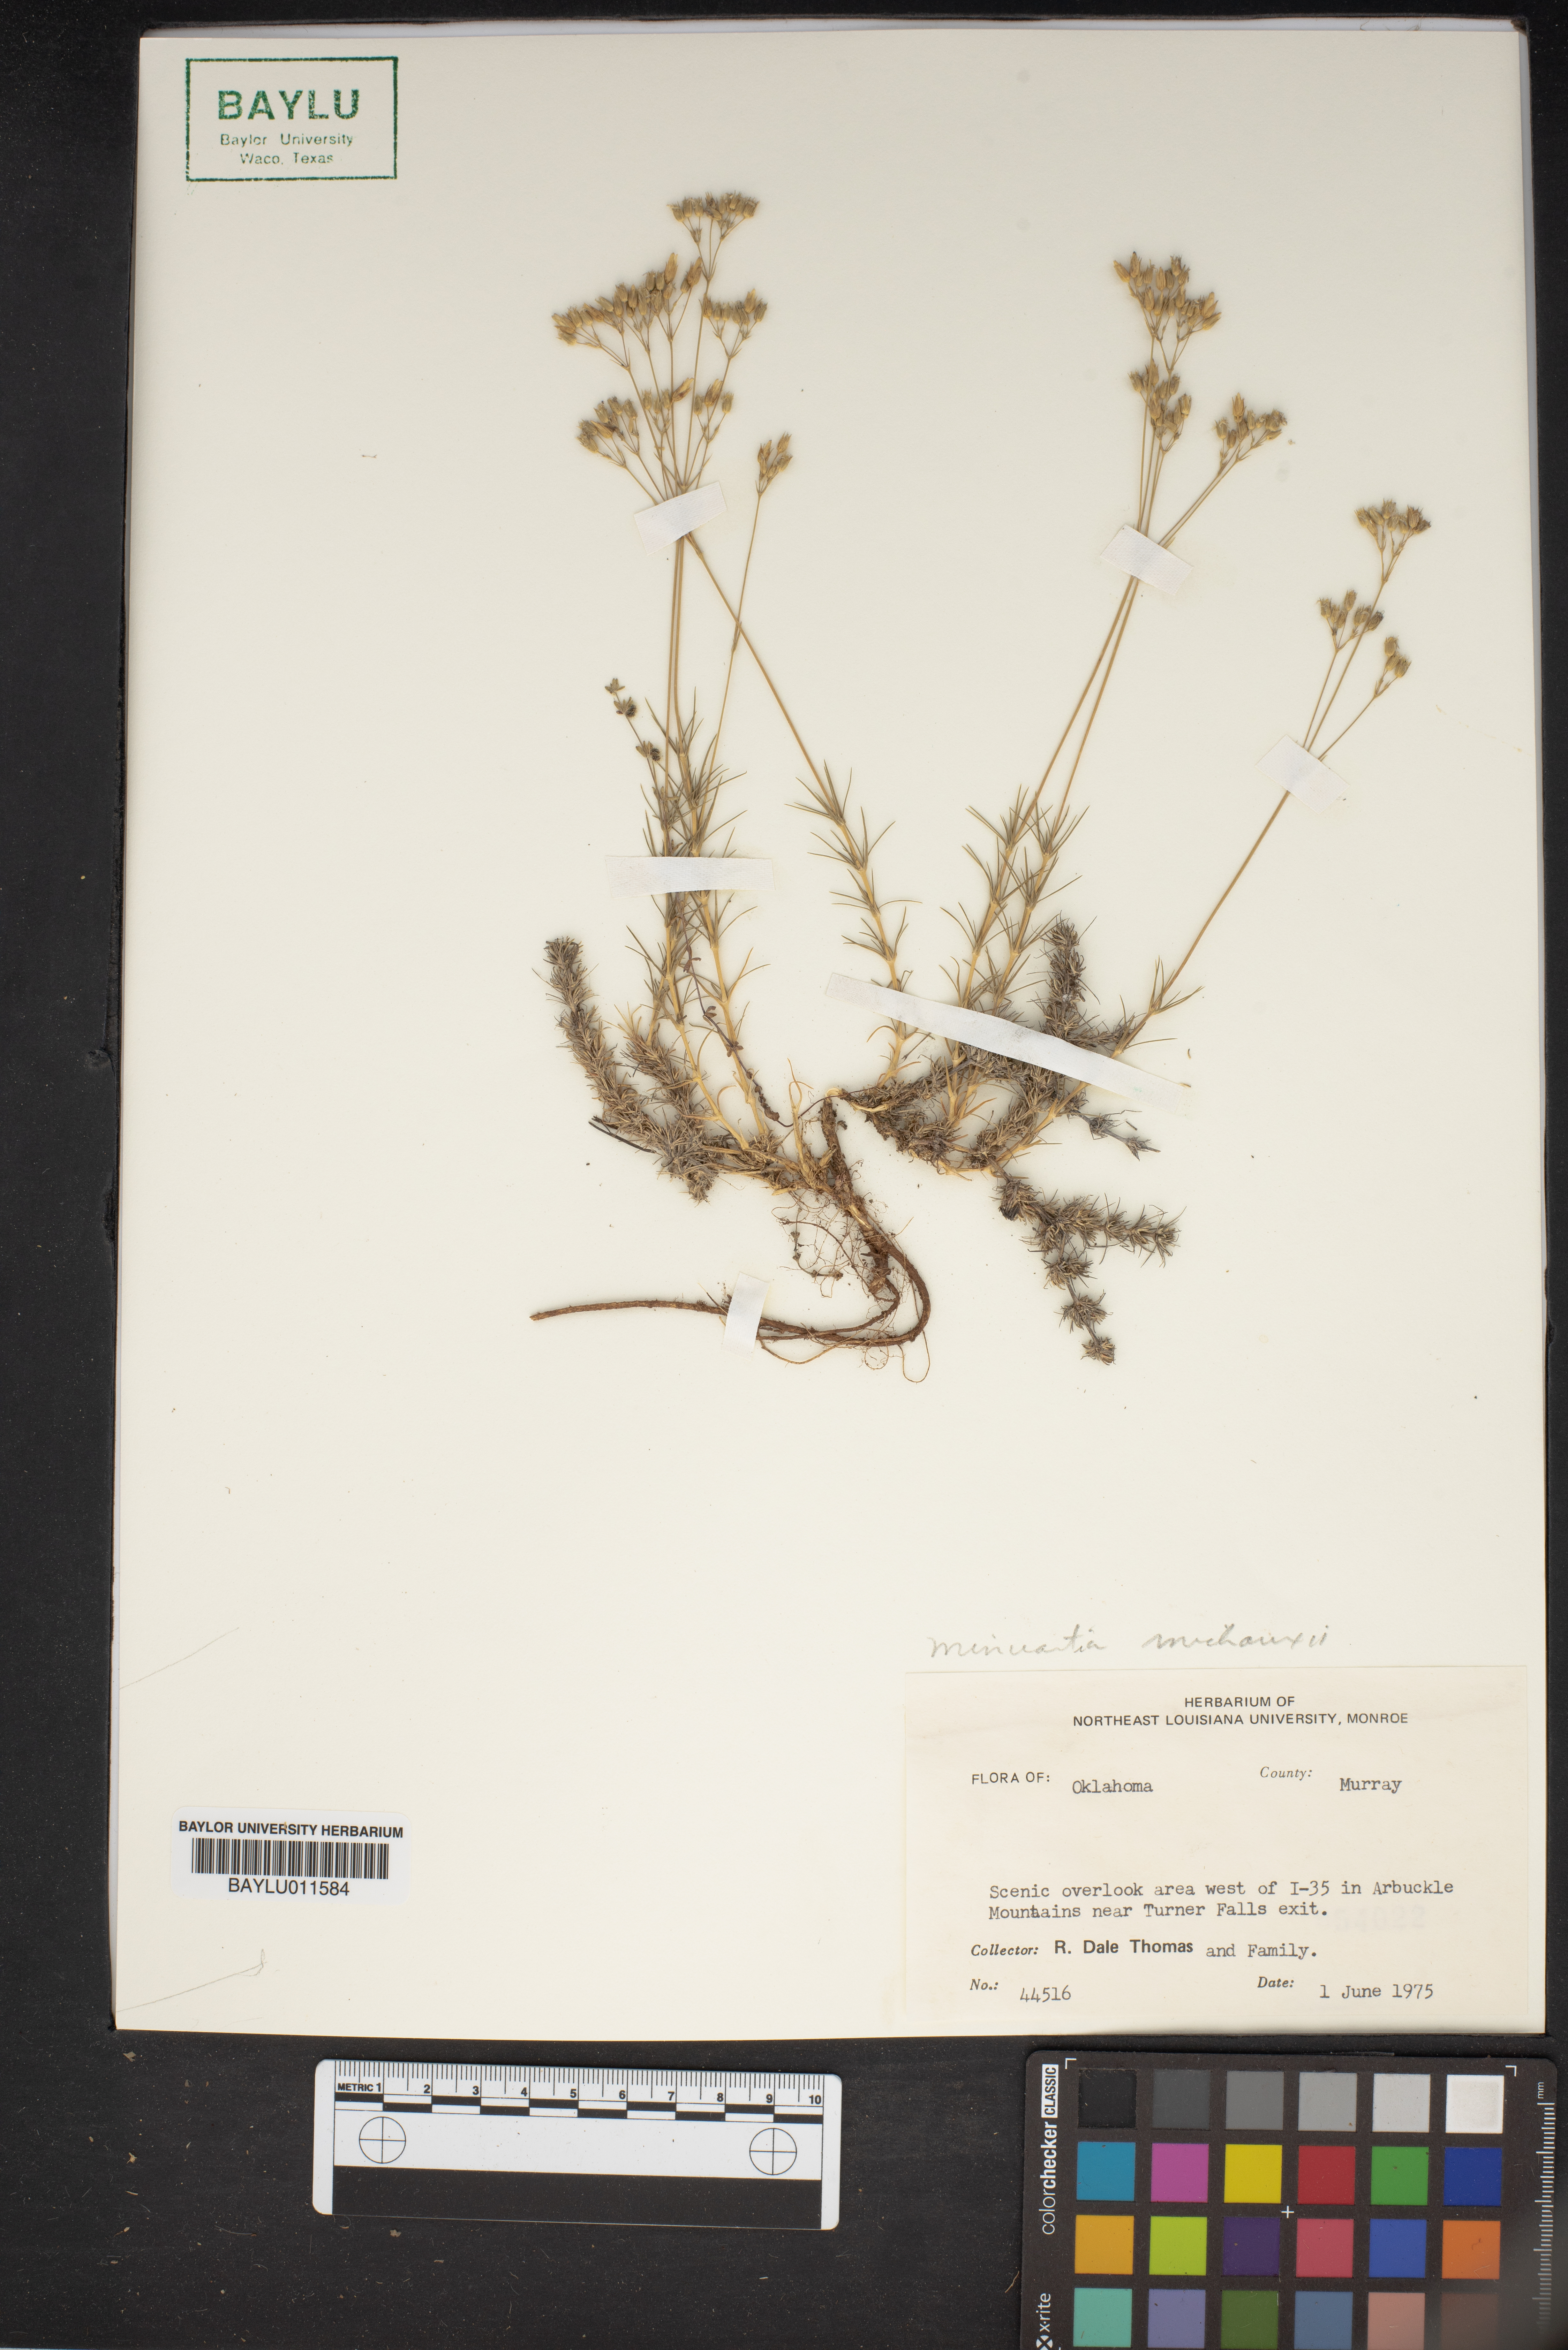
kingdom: Plantae
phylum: Tracheophyta
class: Magnoliopsida
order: Caryophyllales
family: Caryophyllaceae
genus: Sabulina
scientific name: Sabulina michauxii
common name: Michaux's stitchwort
